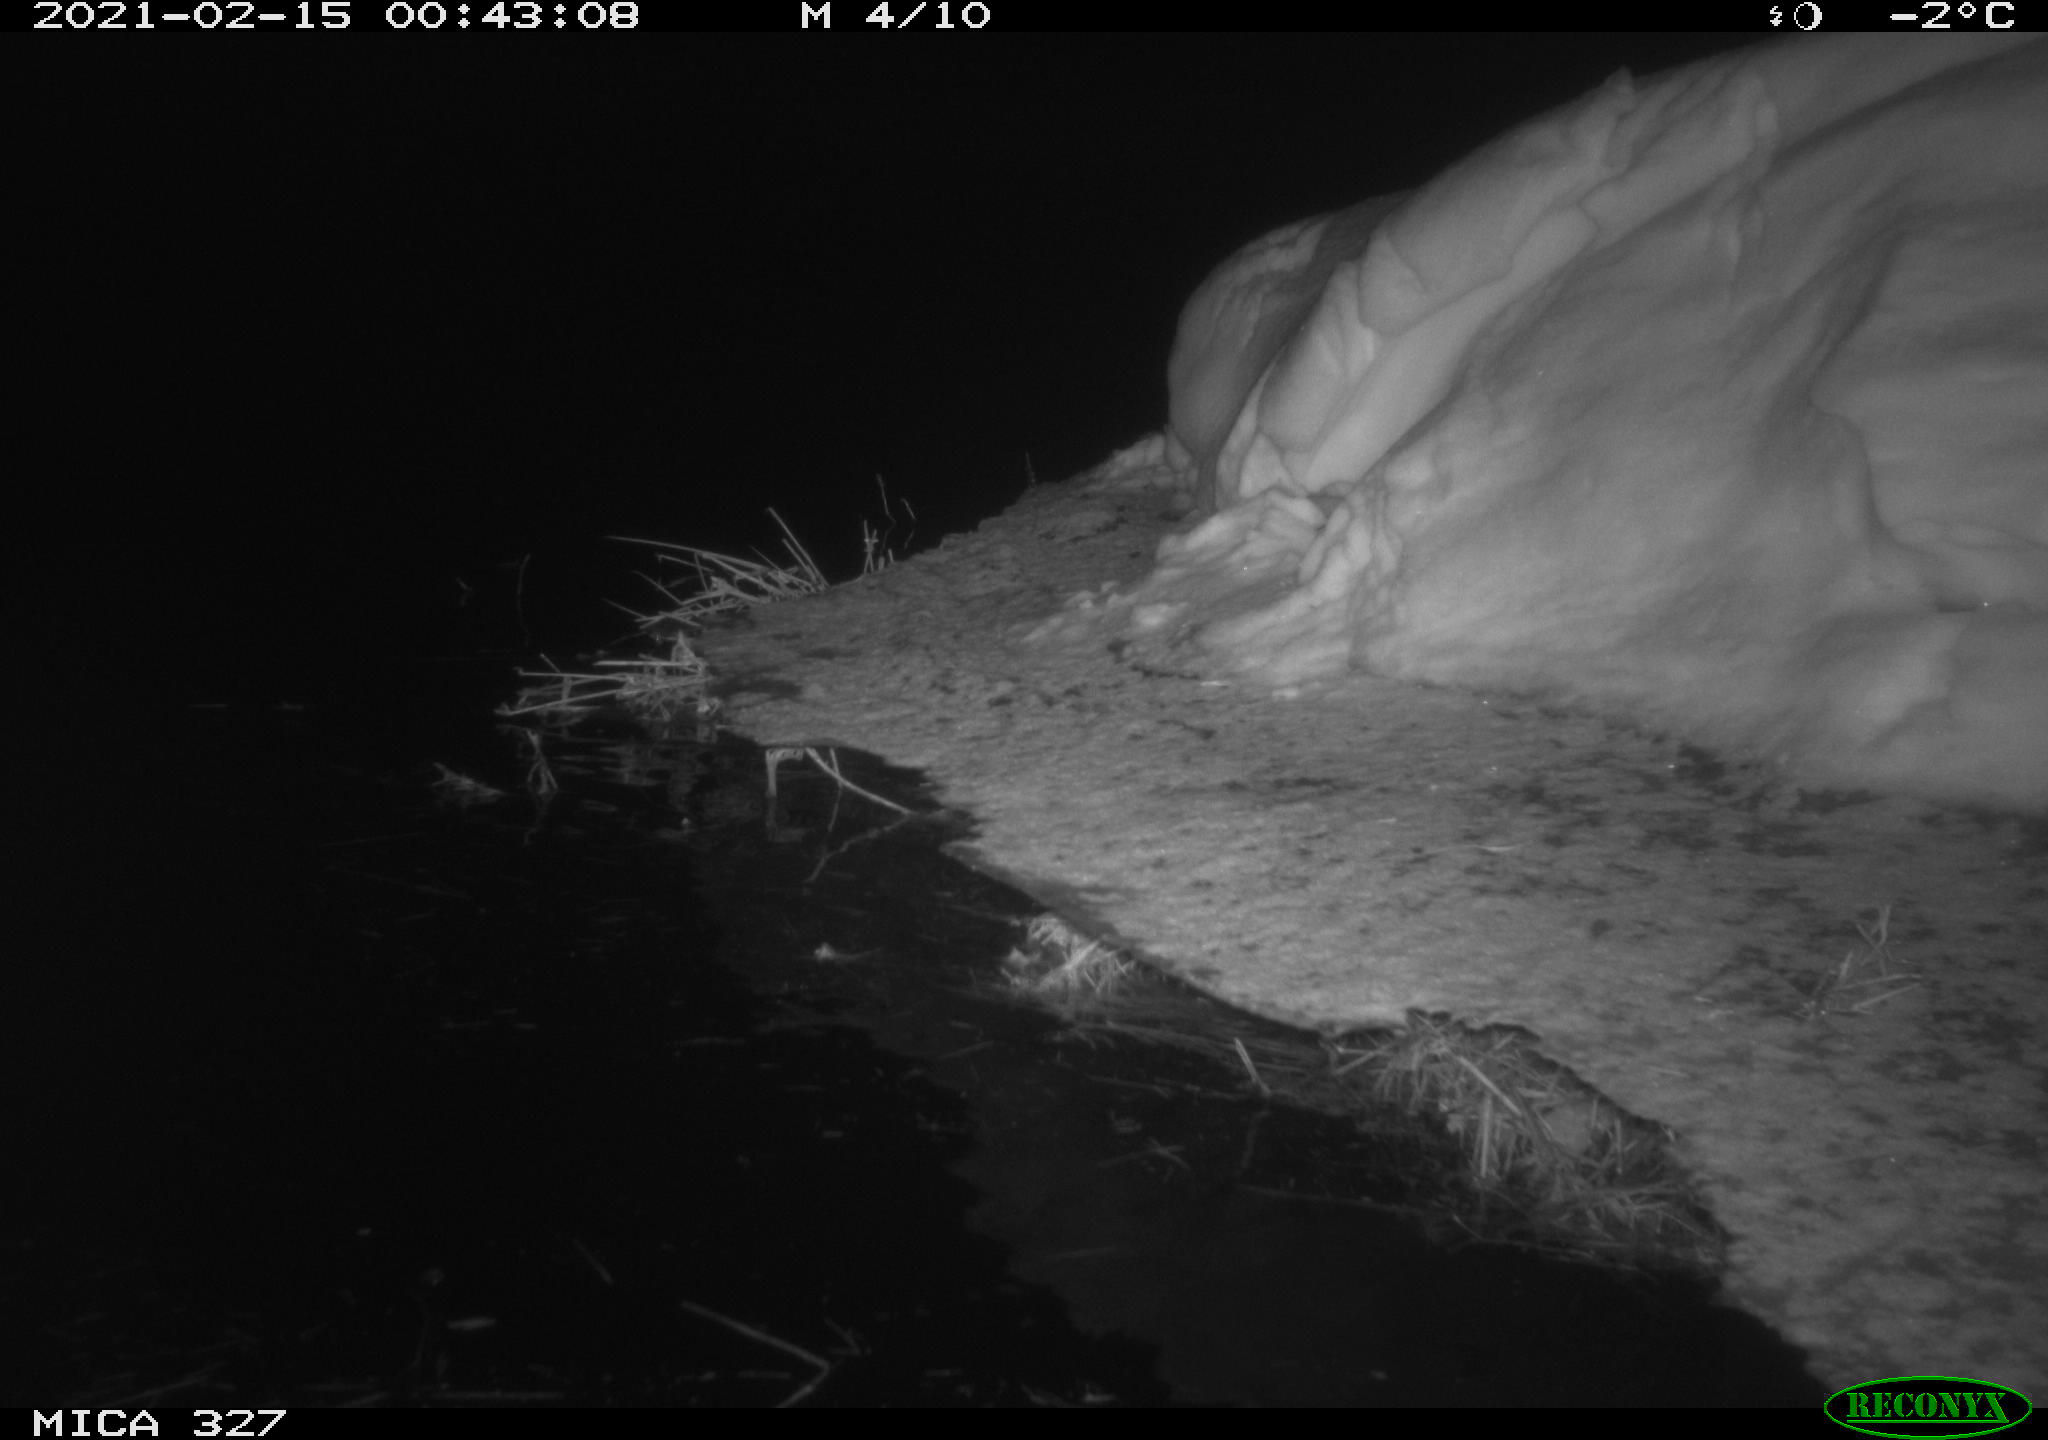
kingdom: Animalia
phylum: Chordata
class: Aves
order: Anseriformes
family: Anatidae
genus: Anas
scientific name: Anas
